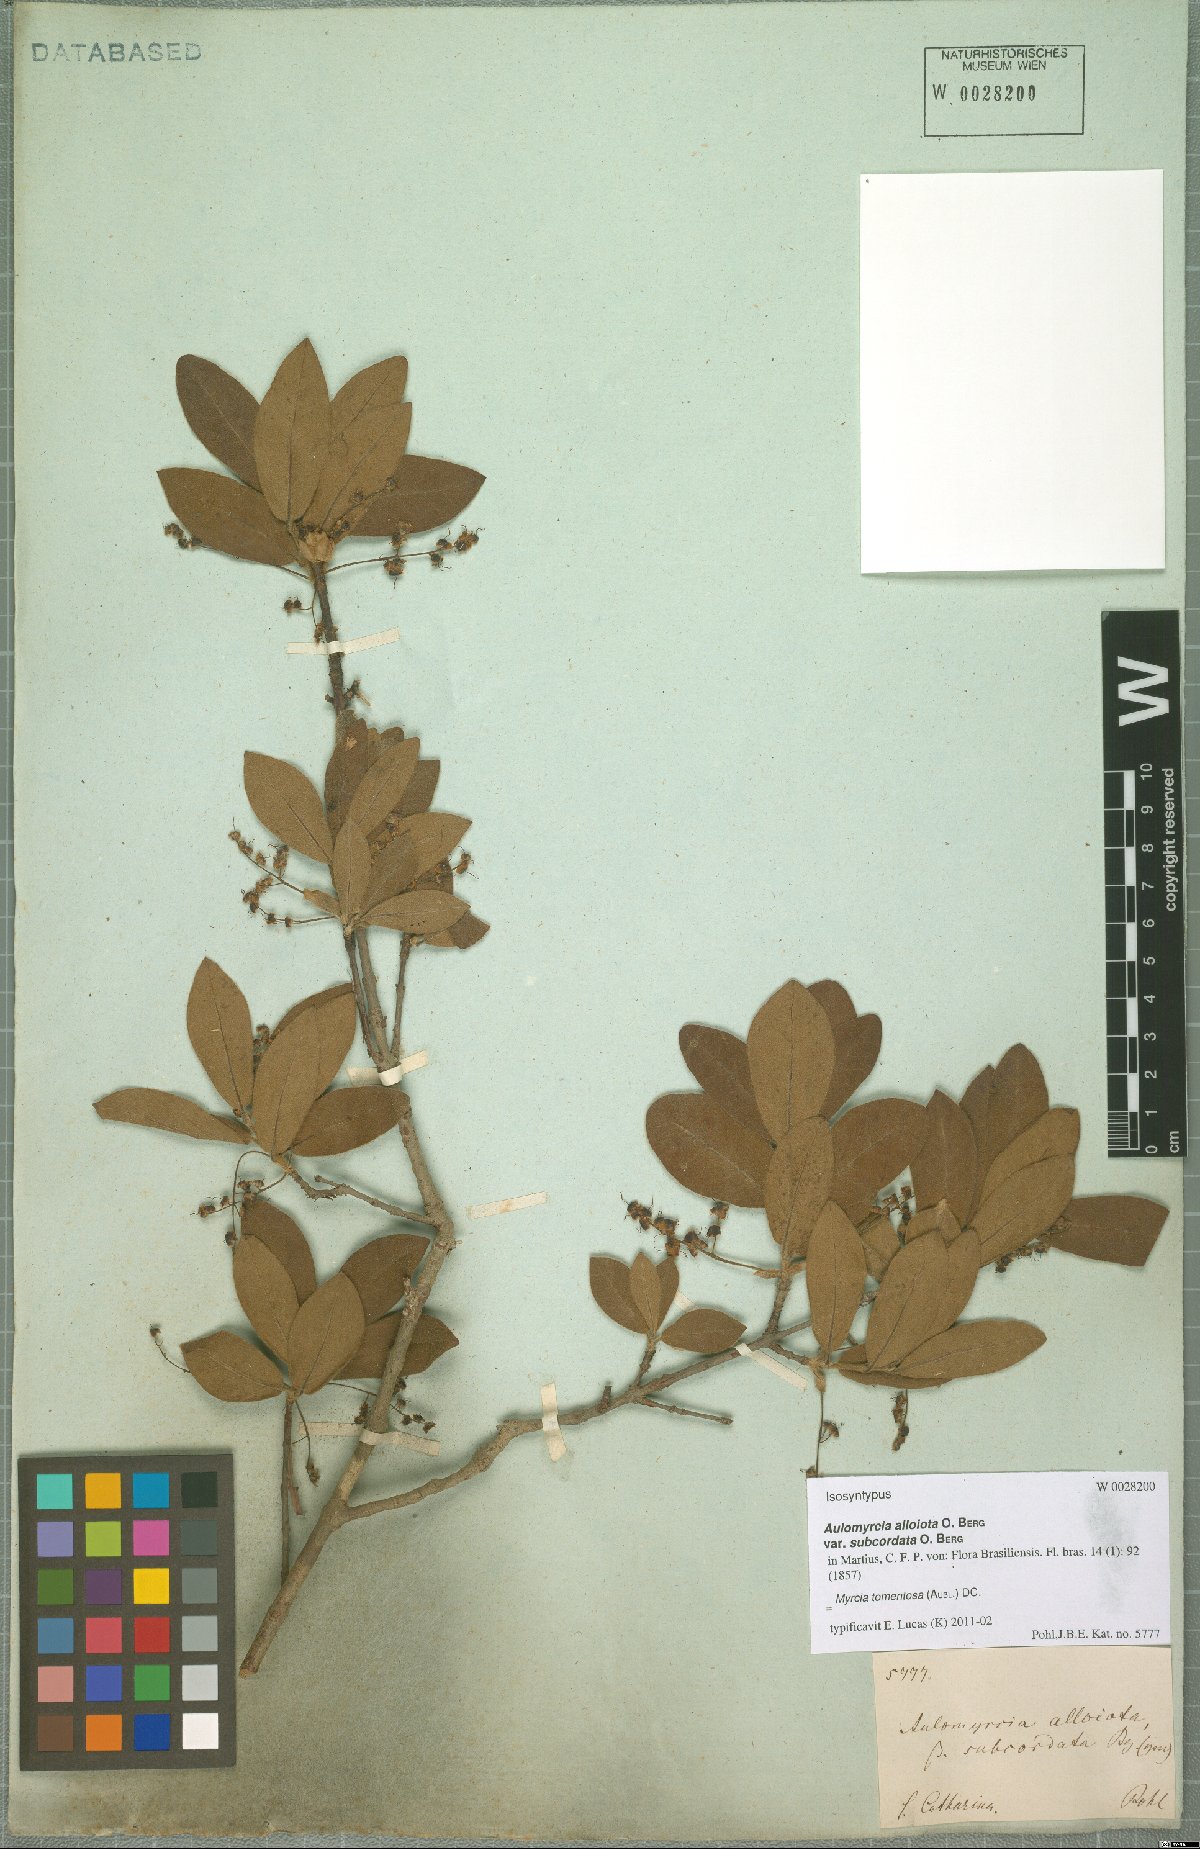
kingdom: Plantae
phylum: Tracheophyta
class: Magnoliopsida
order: Myrtales
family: Myrtaceae
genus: Myrcia
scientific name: Myrcia tomentosa
